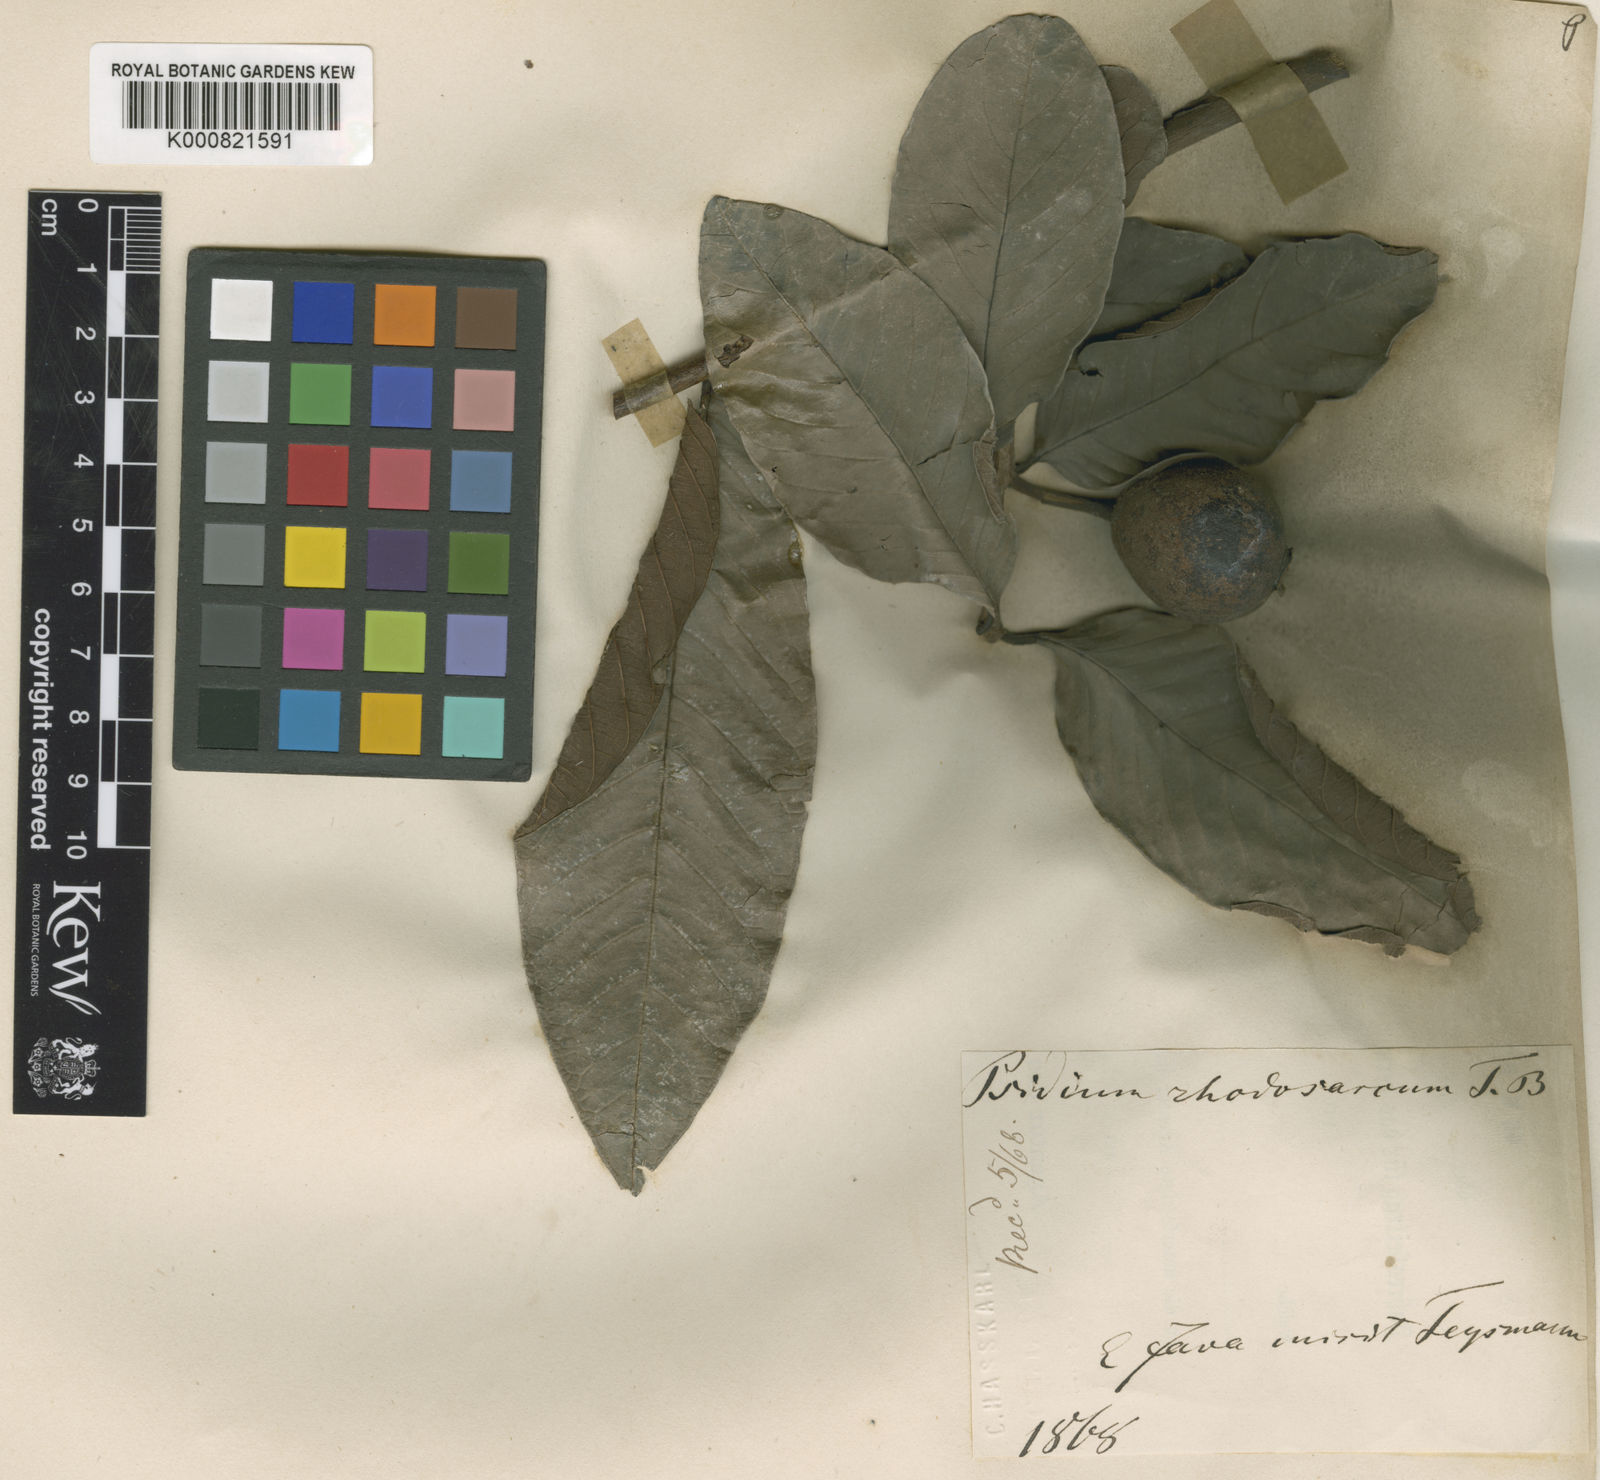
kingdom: Plantae
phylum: Tracheophyta
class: Magnoliopsida
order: Myrtales
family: Myrtaceae
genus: Psidium
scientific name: Psidium
